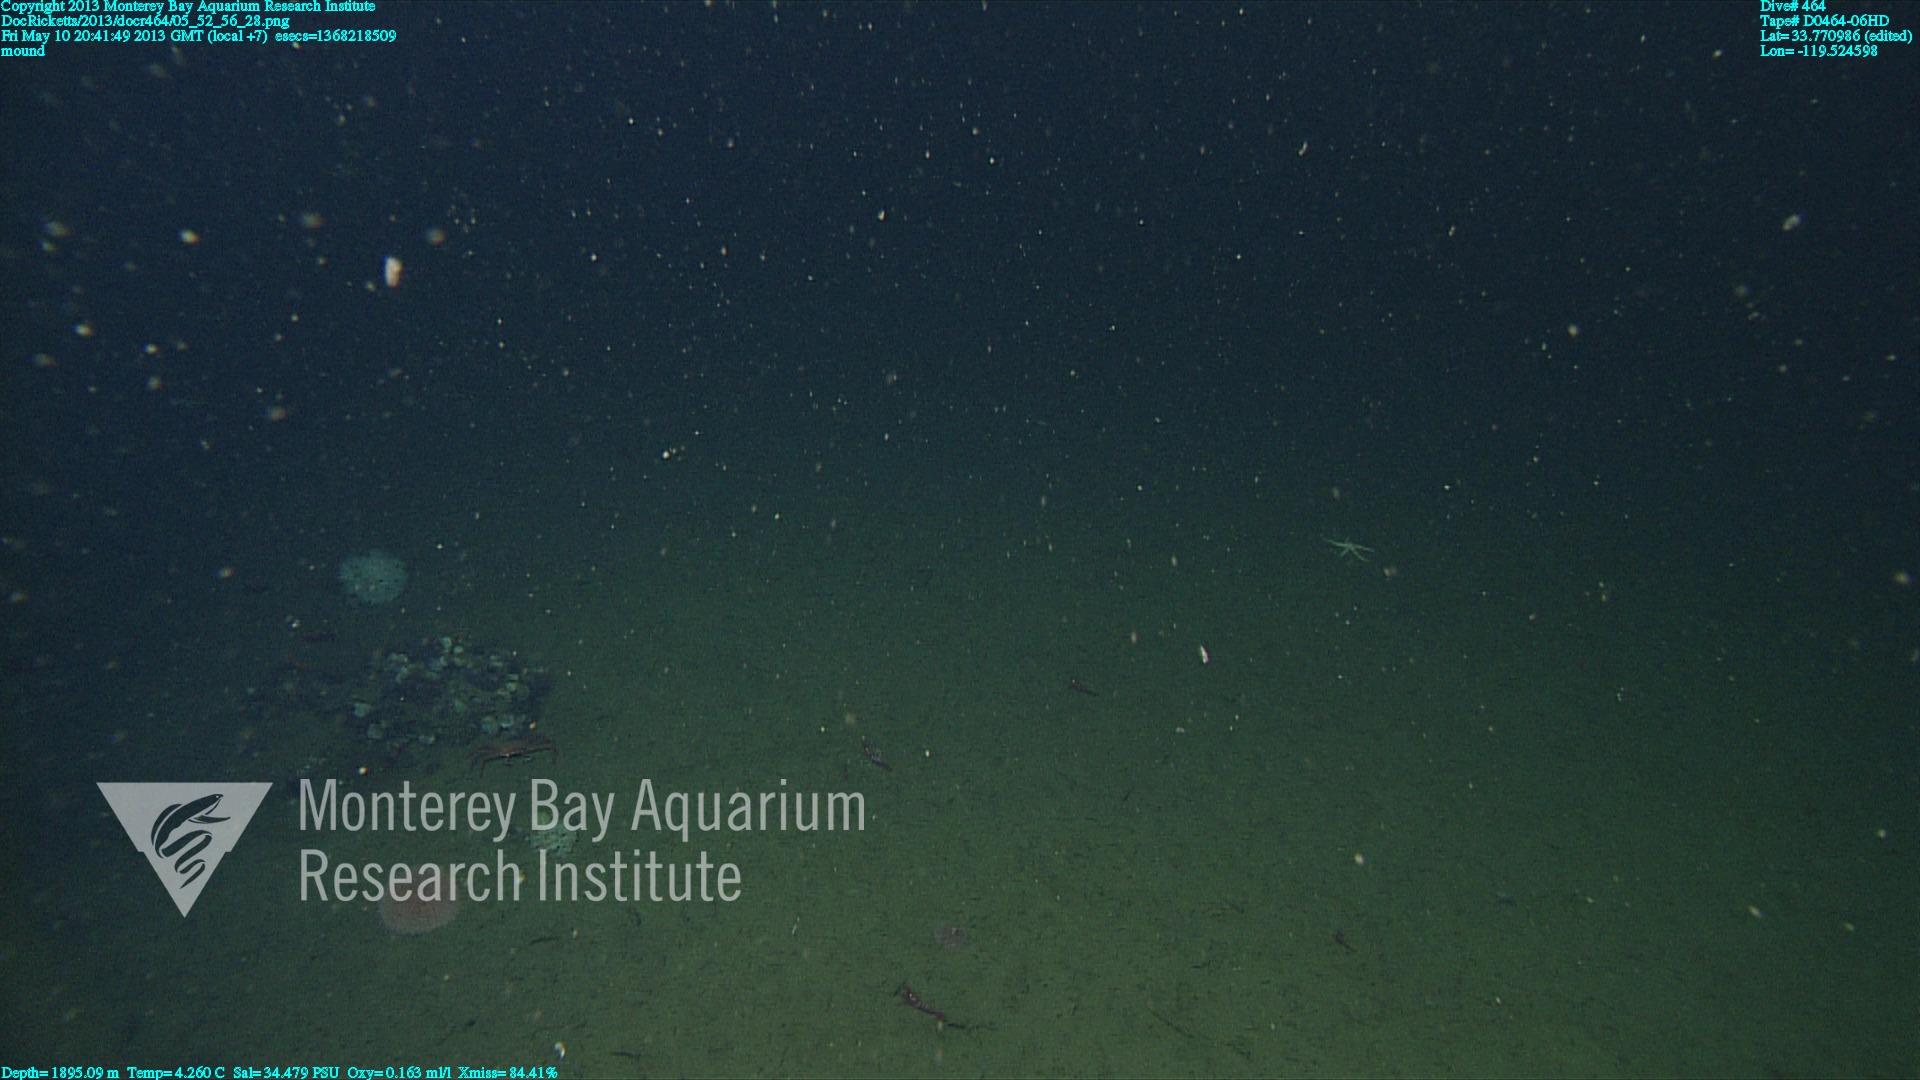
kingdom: Animalia
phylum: Porifera
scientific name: Porifera
